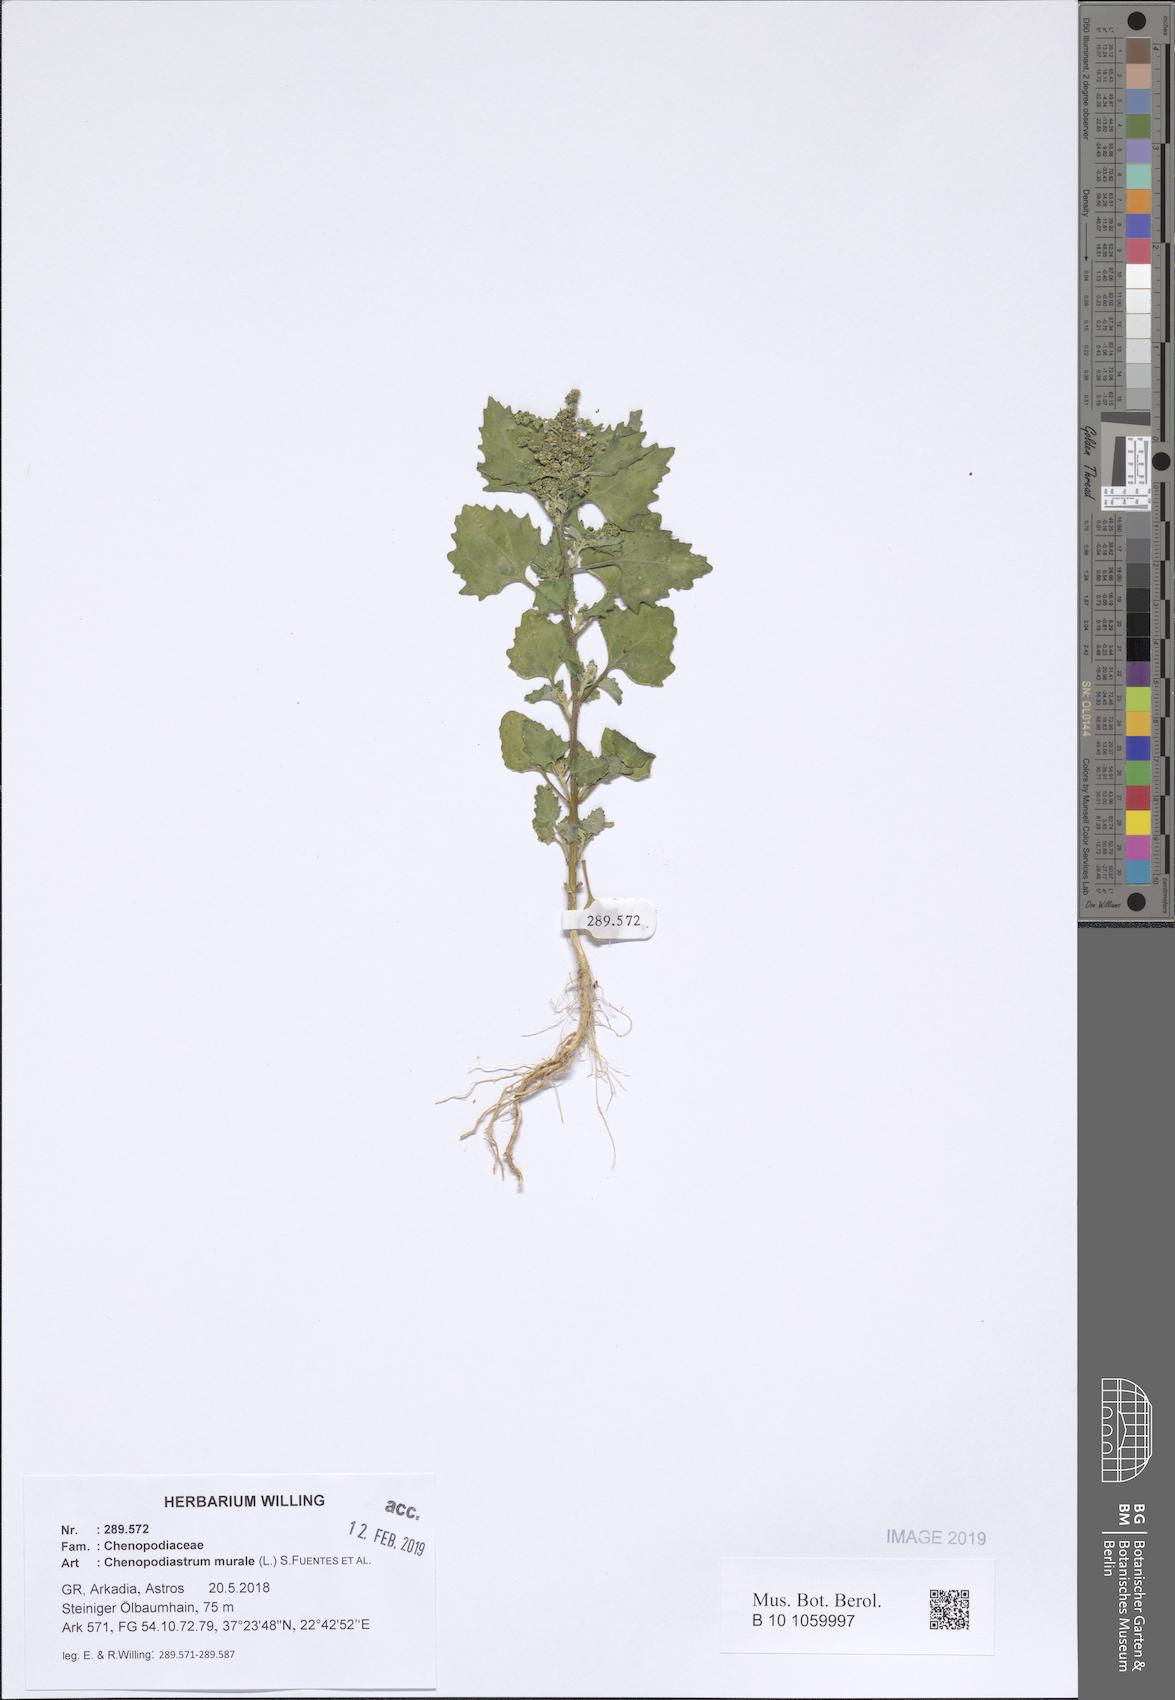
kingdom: Plantae
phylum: Tracheophyta
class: Magnoliopsida
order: Caryophyllales
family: Amaranthaceae
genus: Chenopodiastrum
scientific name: Chenopodiastrum murale
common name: Sowbane
